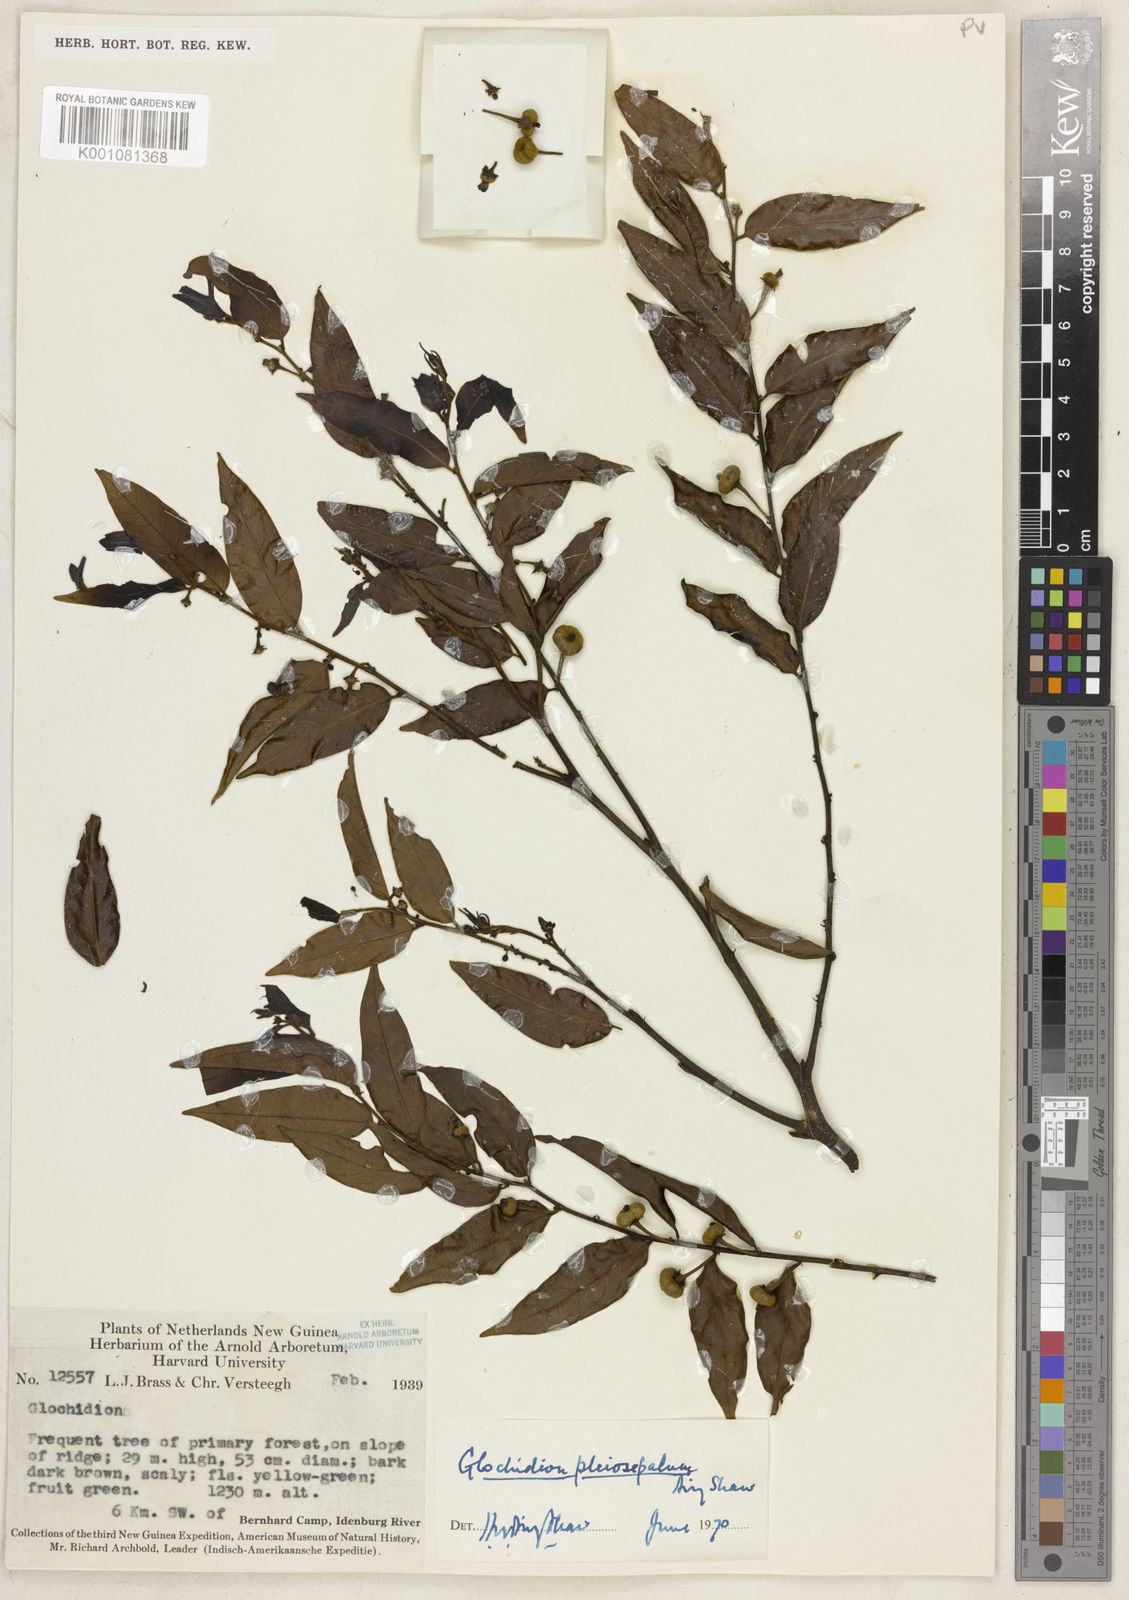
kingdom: Plantae
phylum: Tracheophyta
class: Magnoliopsida
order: Malpighiales
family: Phyllanthaceae
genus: Glochidion
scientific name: Glochidion pleiosepalum
